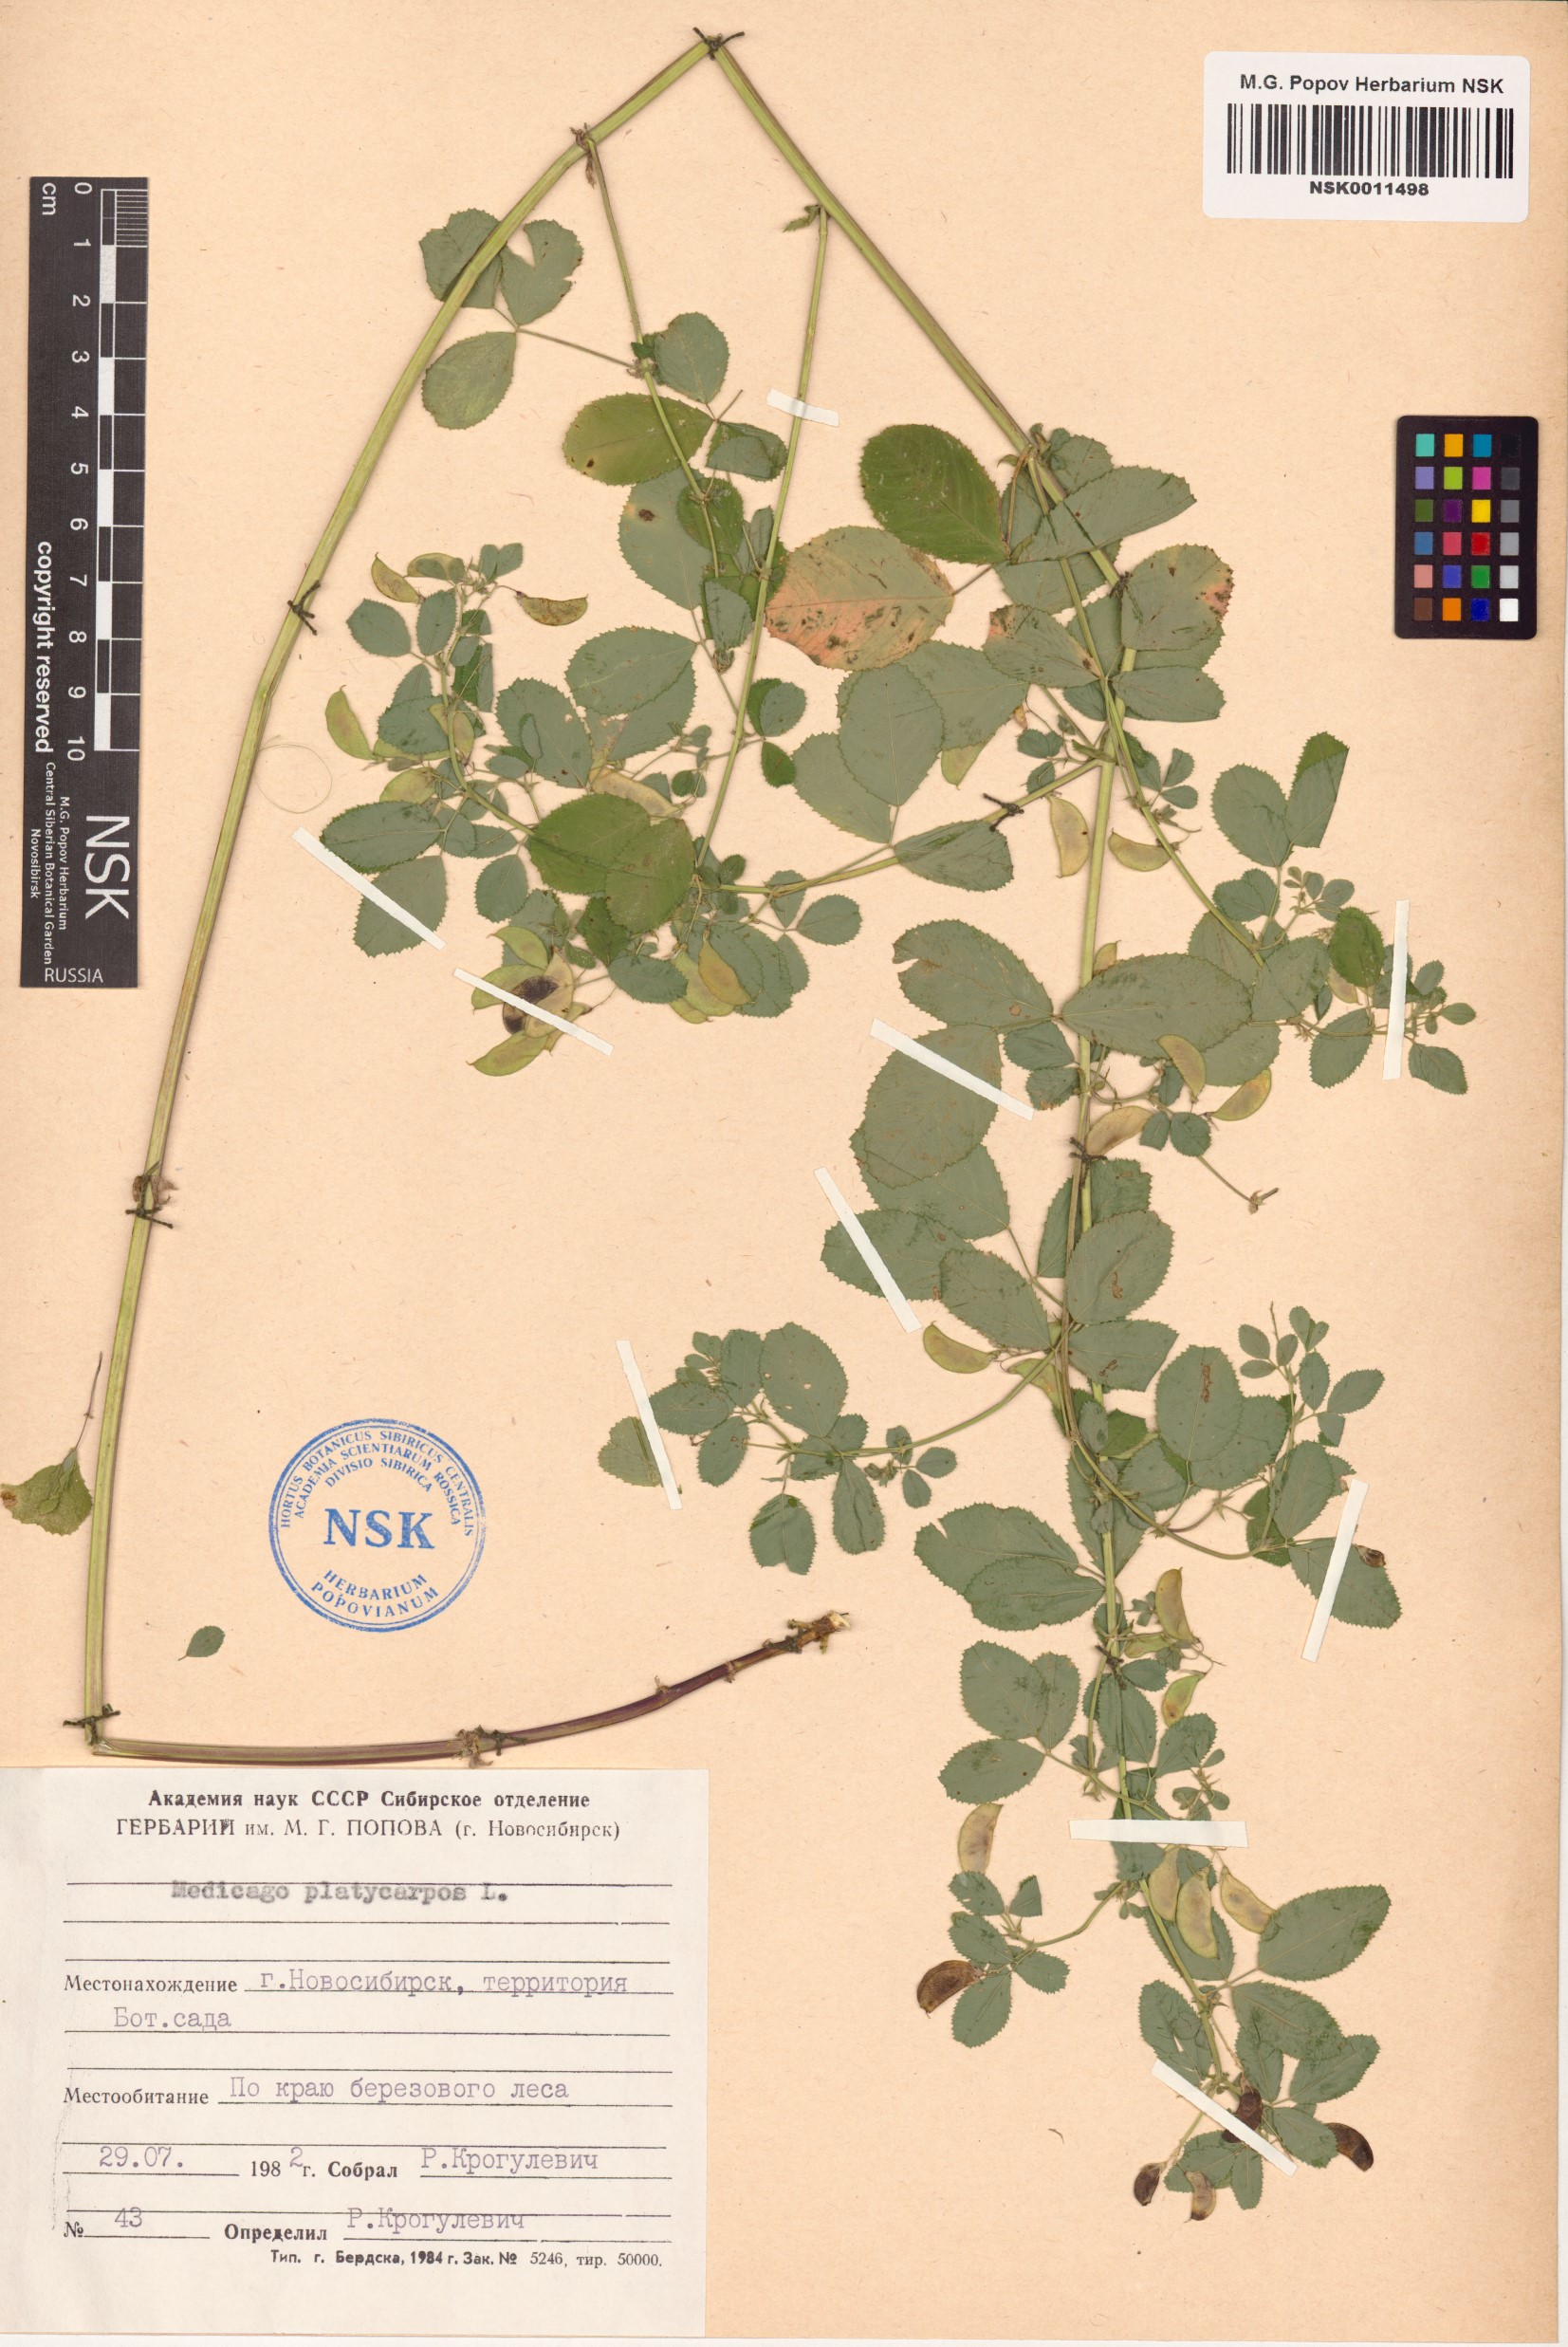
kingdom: Plantae
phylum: Tracheophyta
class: Magnoliopsida
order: Fabales
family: Fabaceae
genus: Medicago
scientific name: Medicago platycarpos
